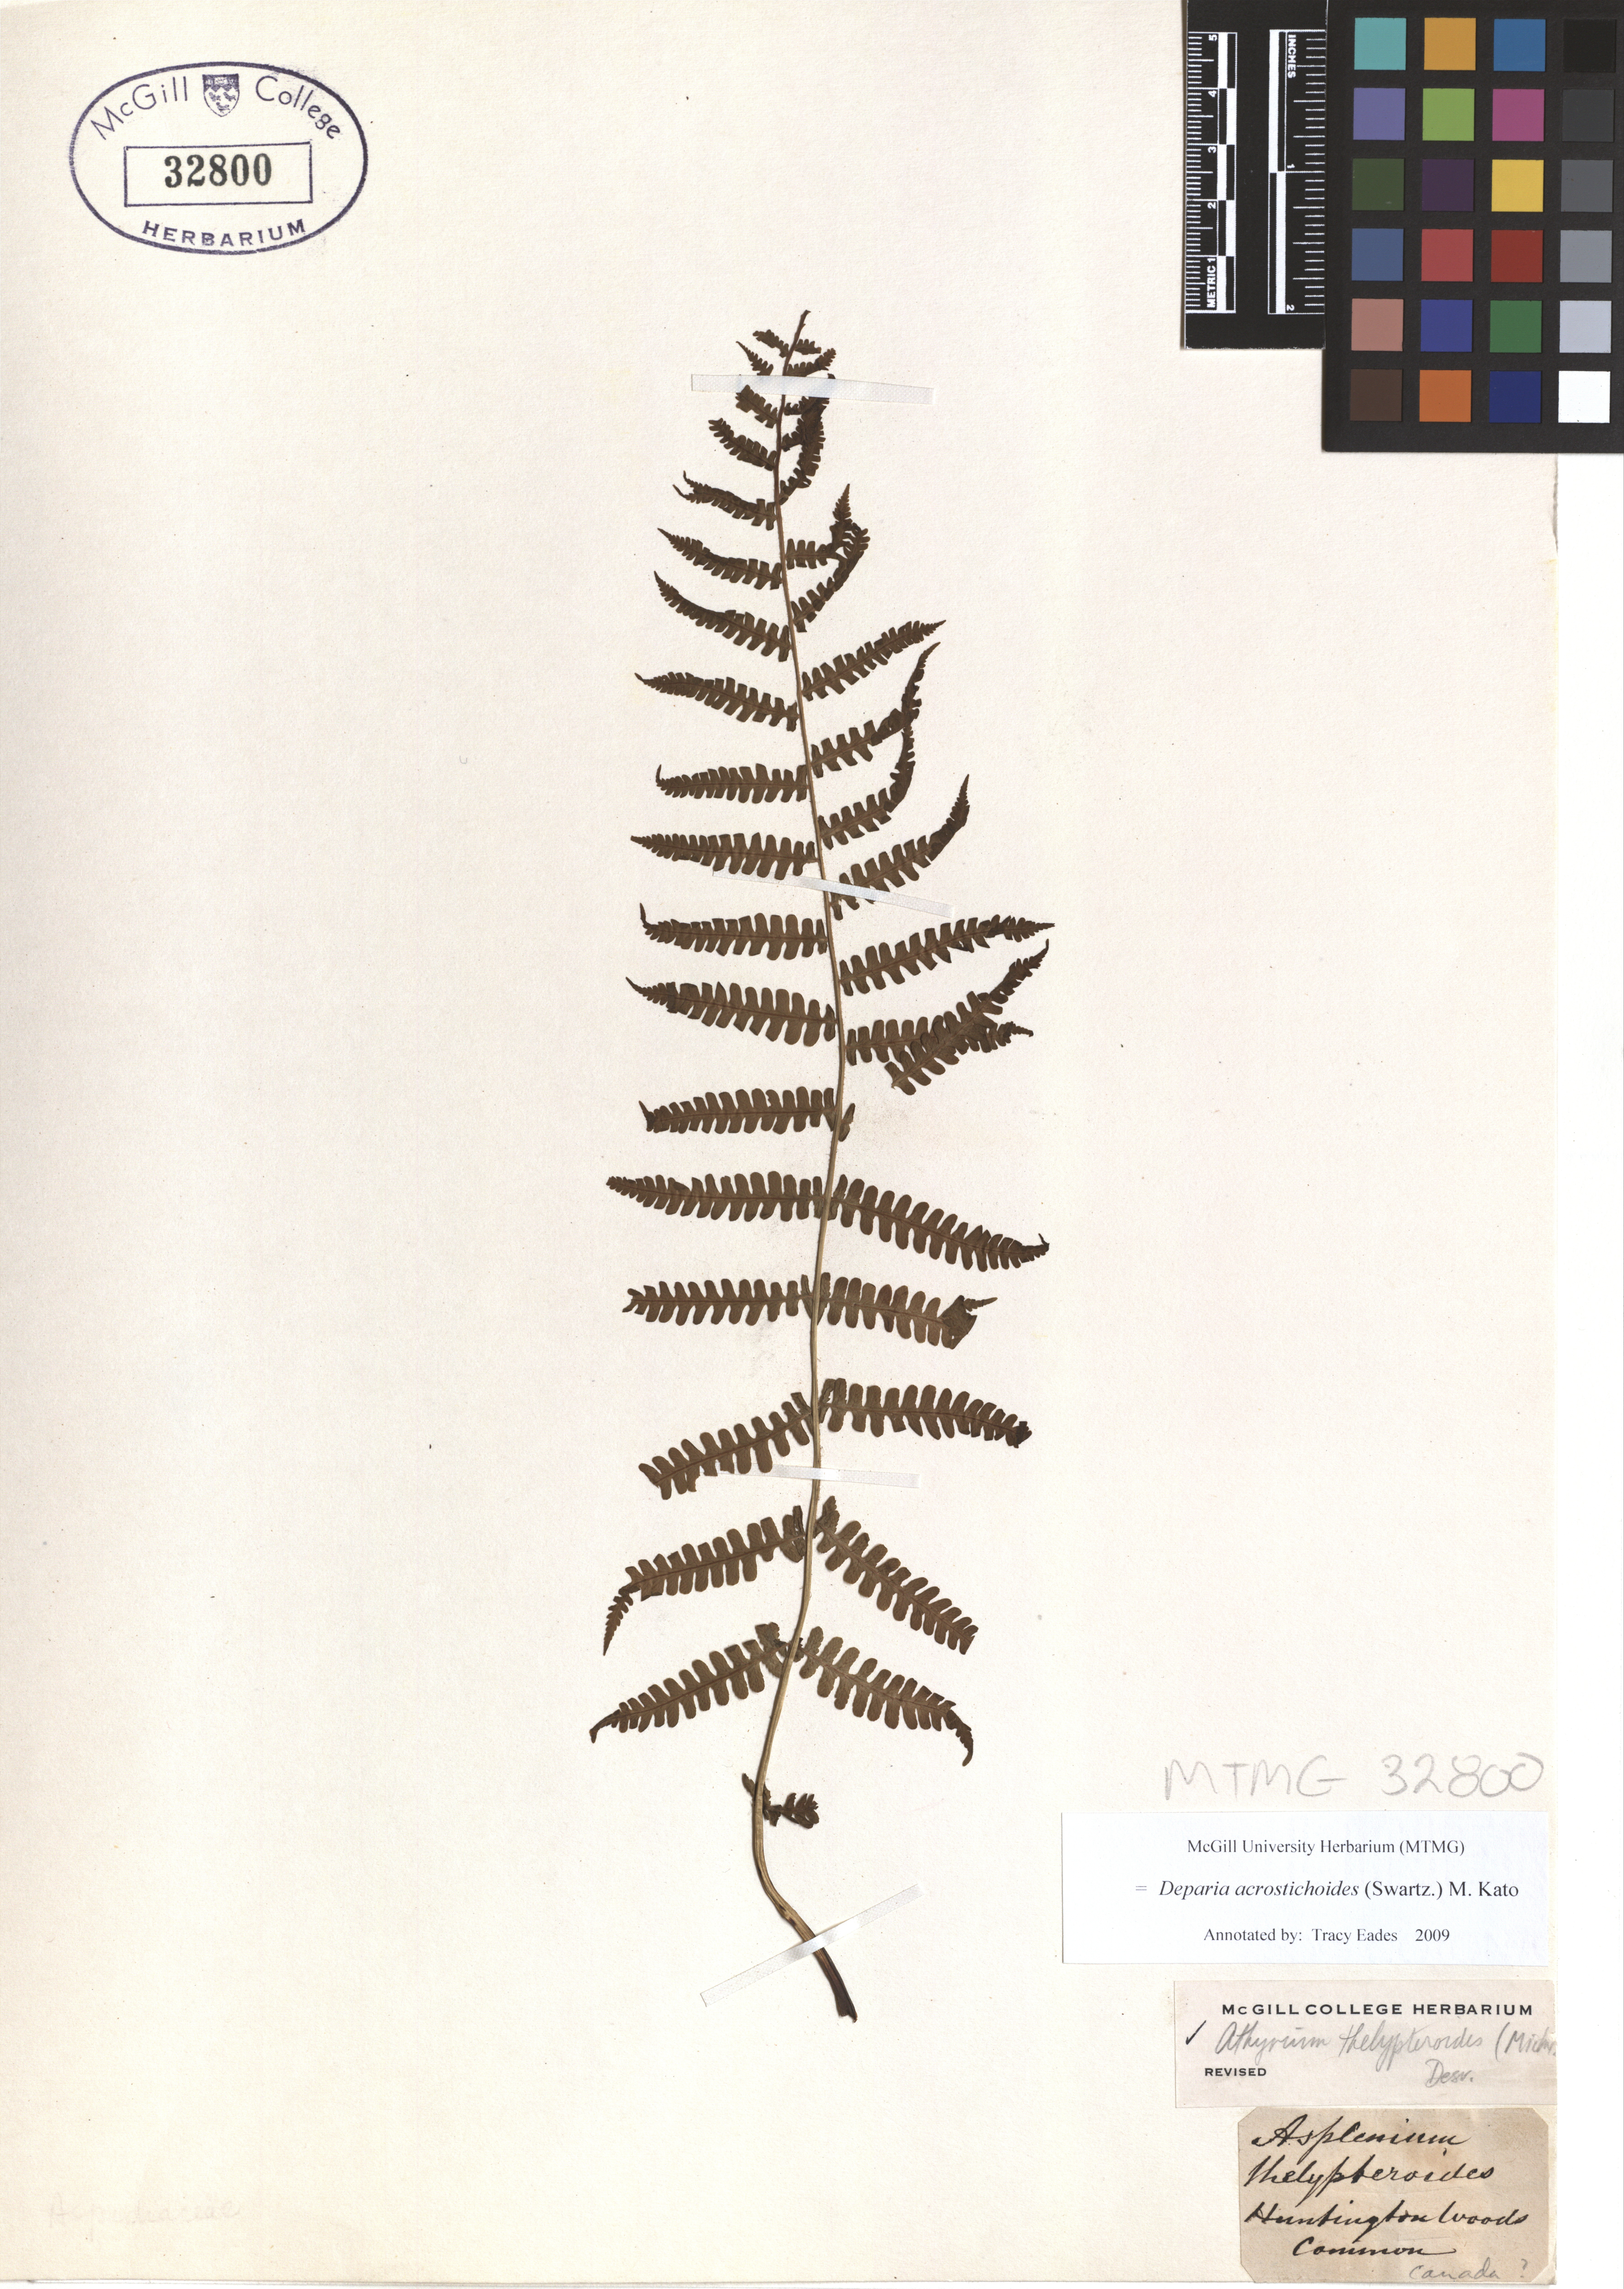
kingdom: Plantae
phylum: Tracheophyta
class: Polypodiopsida
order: Polypodiales
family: Athyriaceae
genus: Deparia
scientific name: Deparia acrostichoides
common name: Silver false spleenwort
